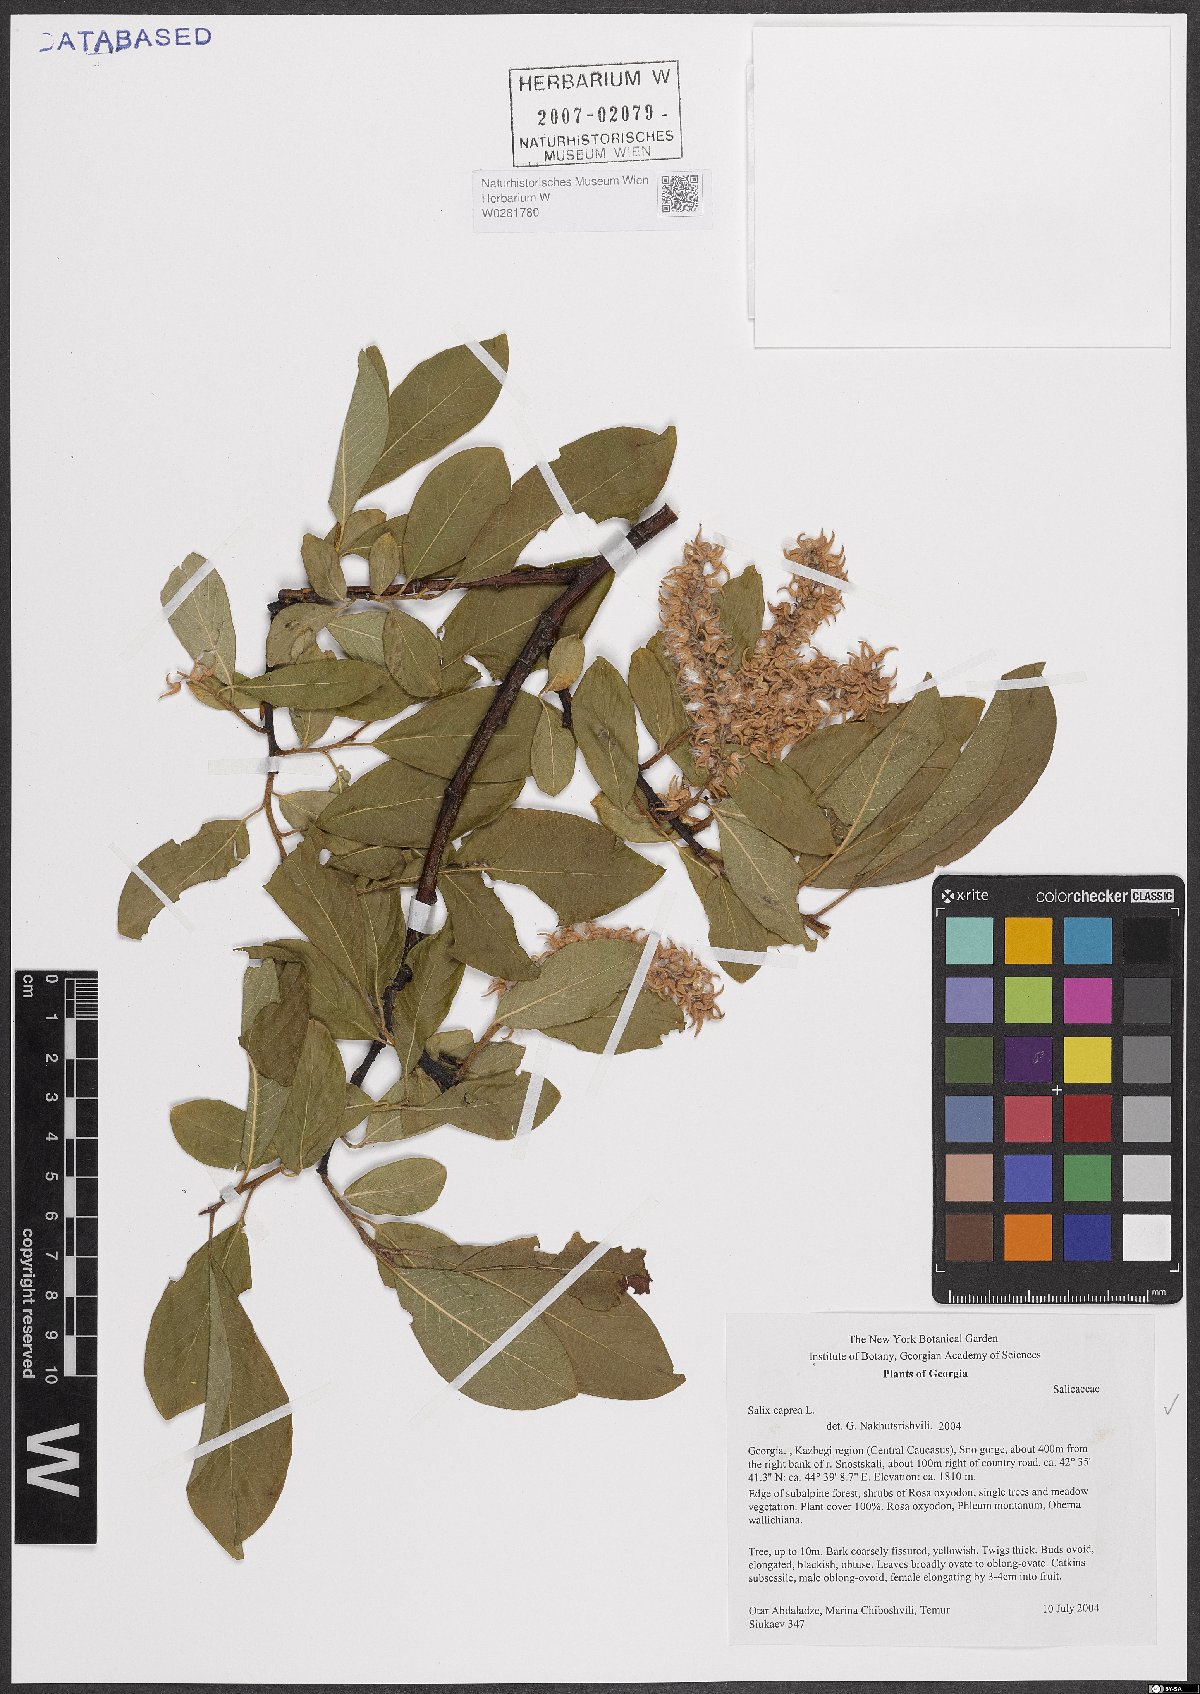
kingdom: Plantae
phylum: Tracheophyta
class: Magnoliopsida
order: Malpighiales
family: Salicaceae
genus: Salix
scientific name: Salix caprea
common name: Goat willow
